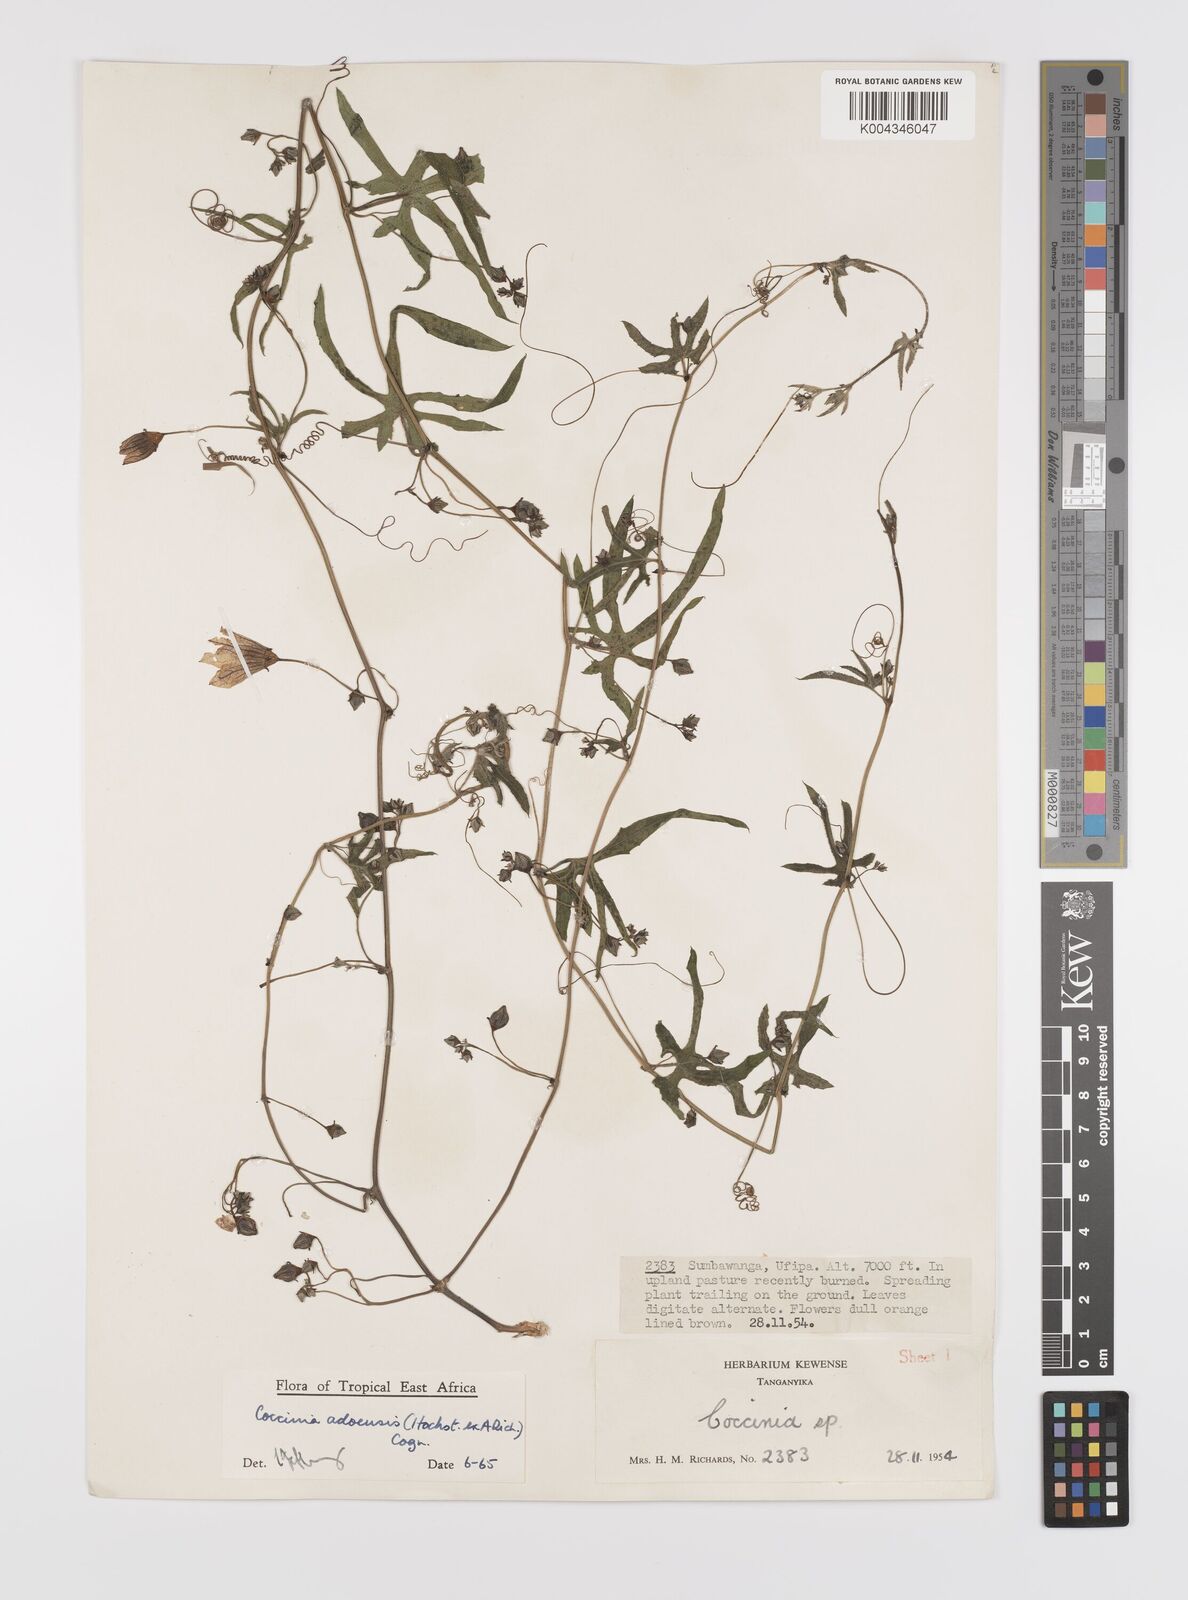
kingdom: Plantae
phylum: Tracheophyta
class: Magnoliopsida
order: Cucurbitales
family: Cucurbitaceae
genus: Coccinia
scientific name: Coccinia adoensis
